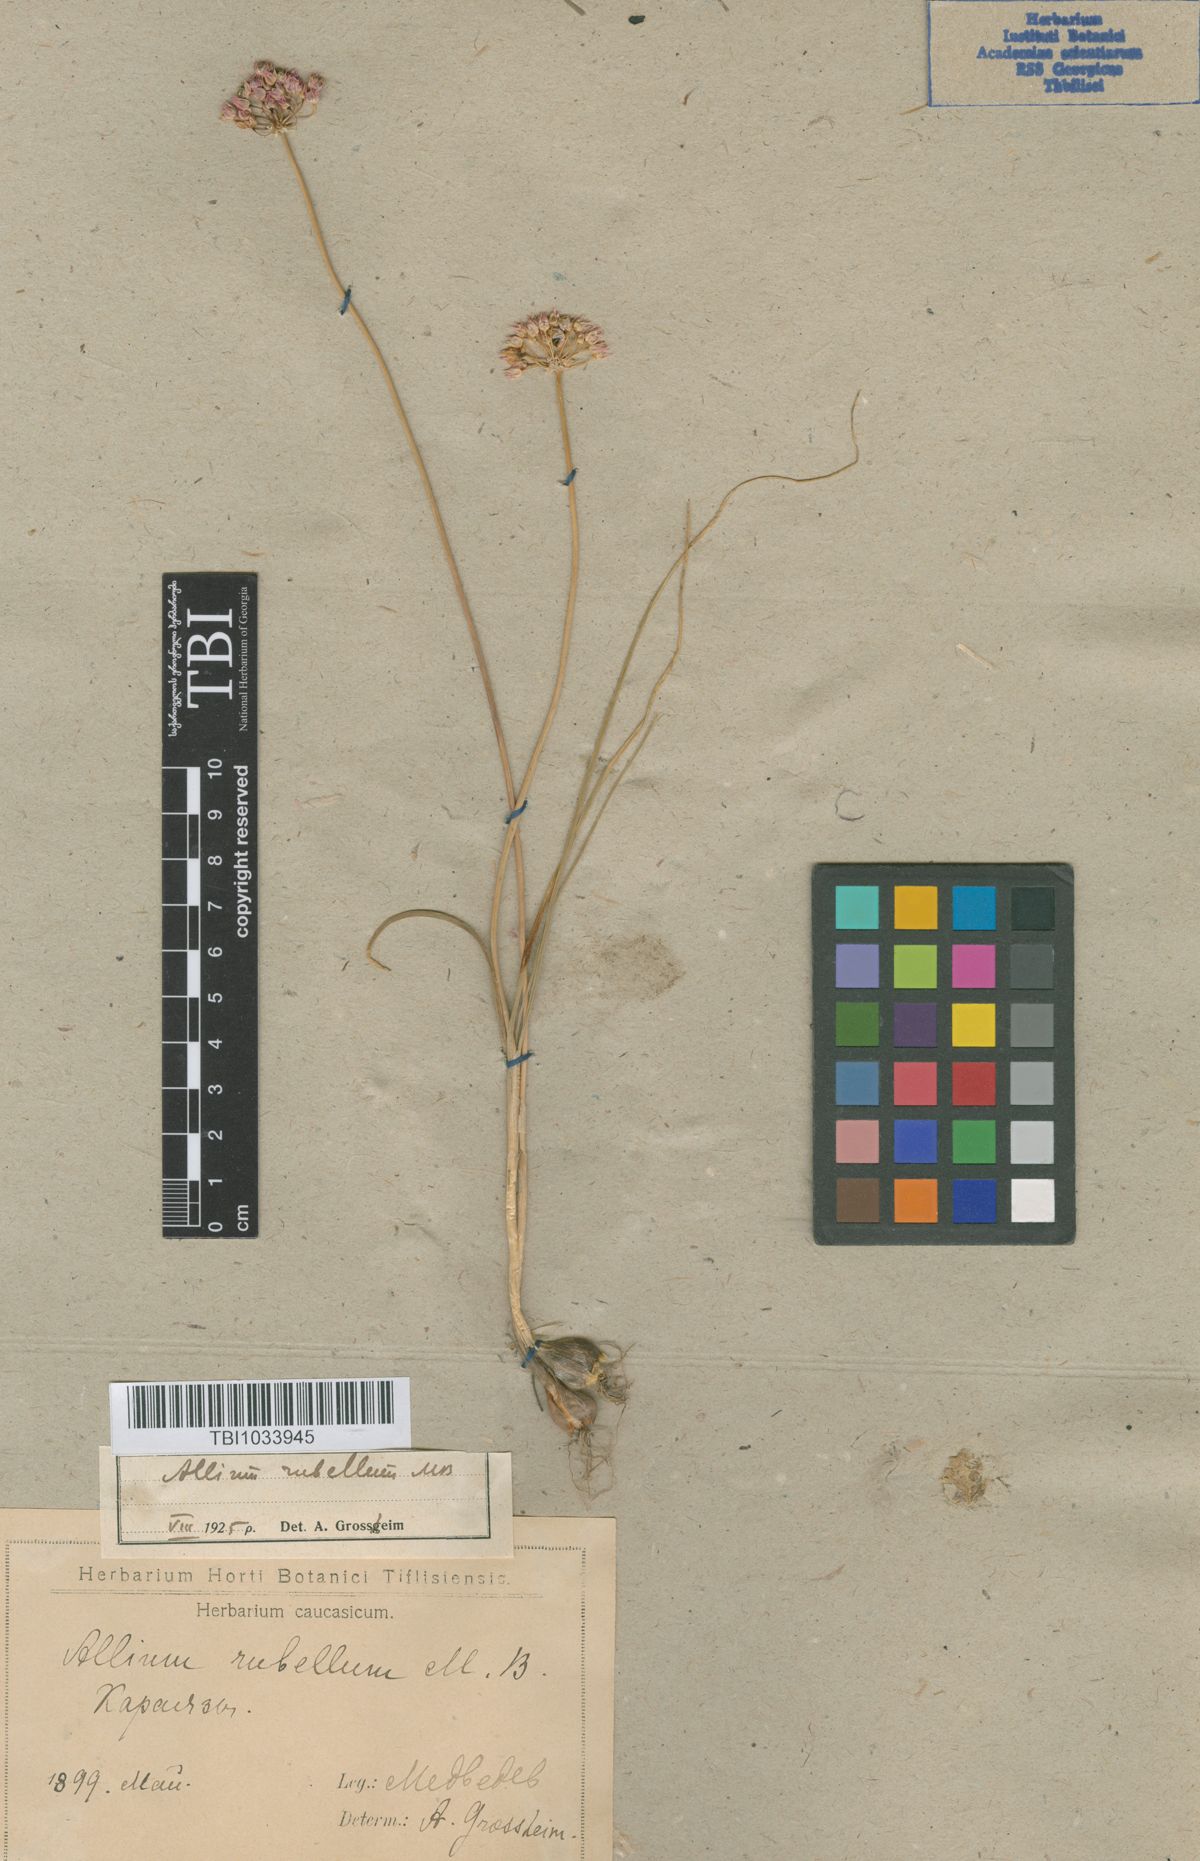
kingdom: Plantae
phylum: Tracheophyta
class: Liliopsida
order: Asparagales
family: Amaryllidaceae
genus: Allium
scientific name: Allium rubellum
